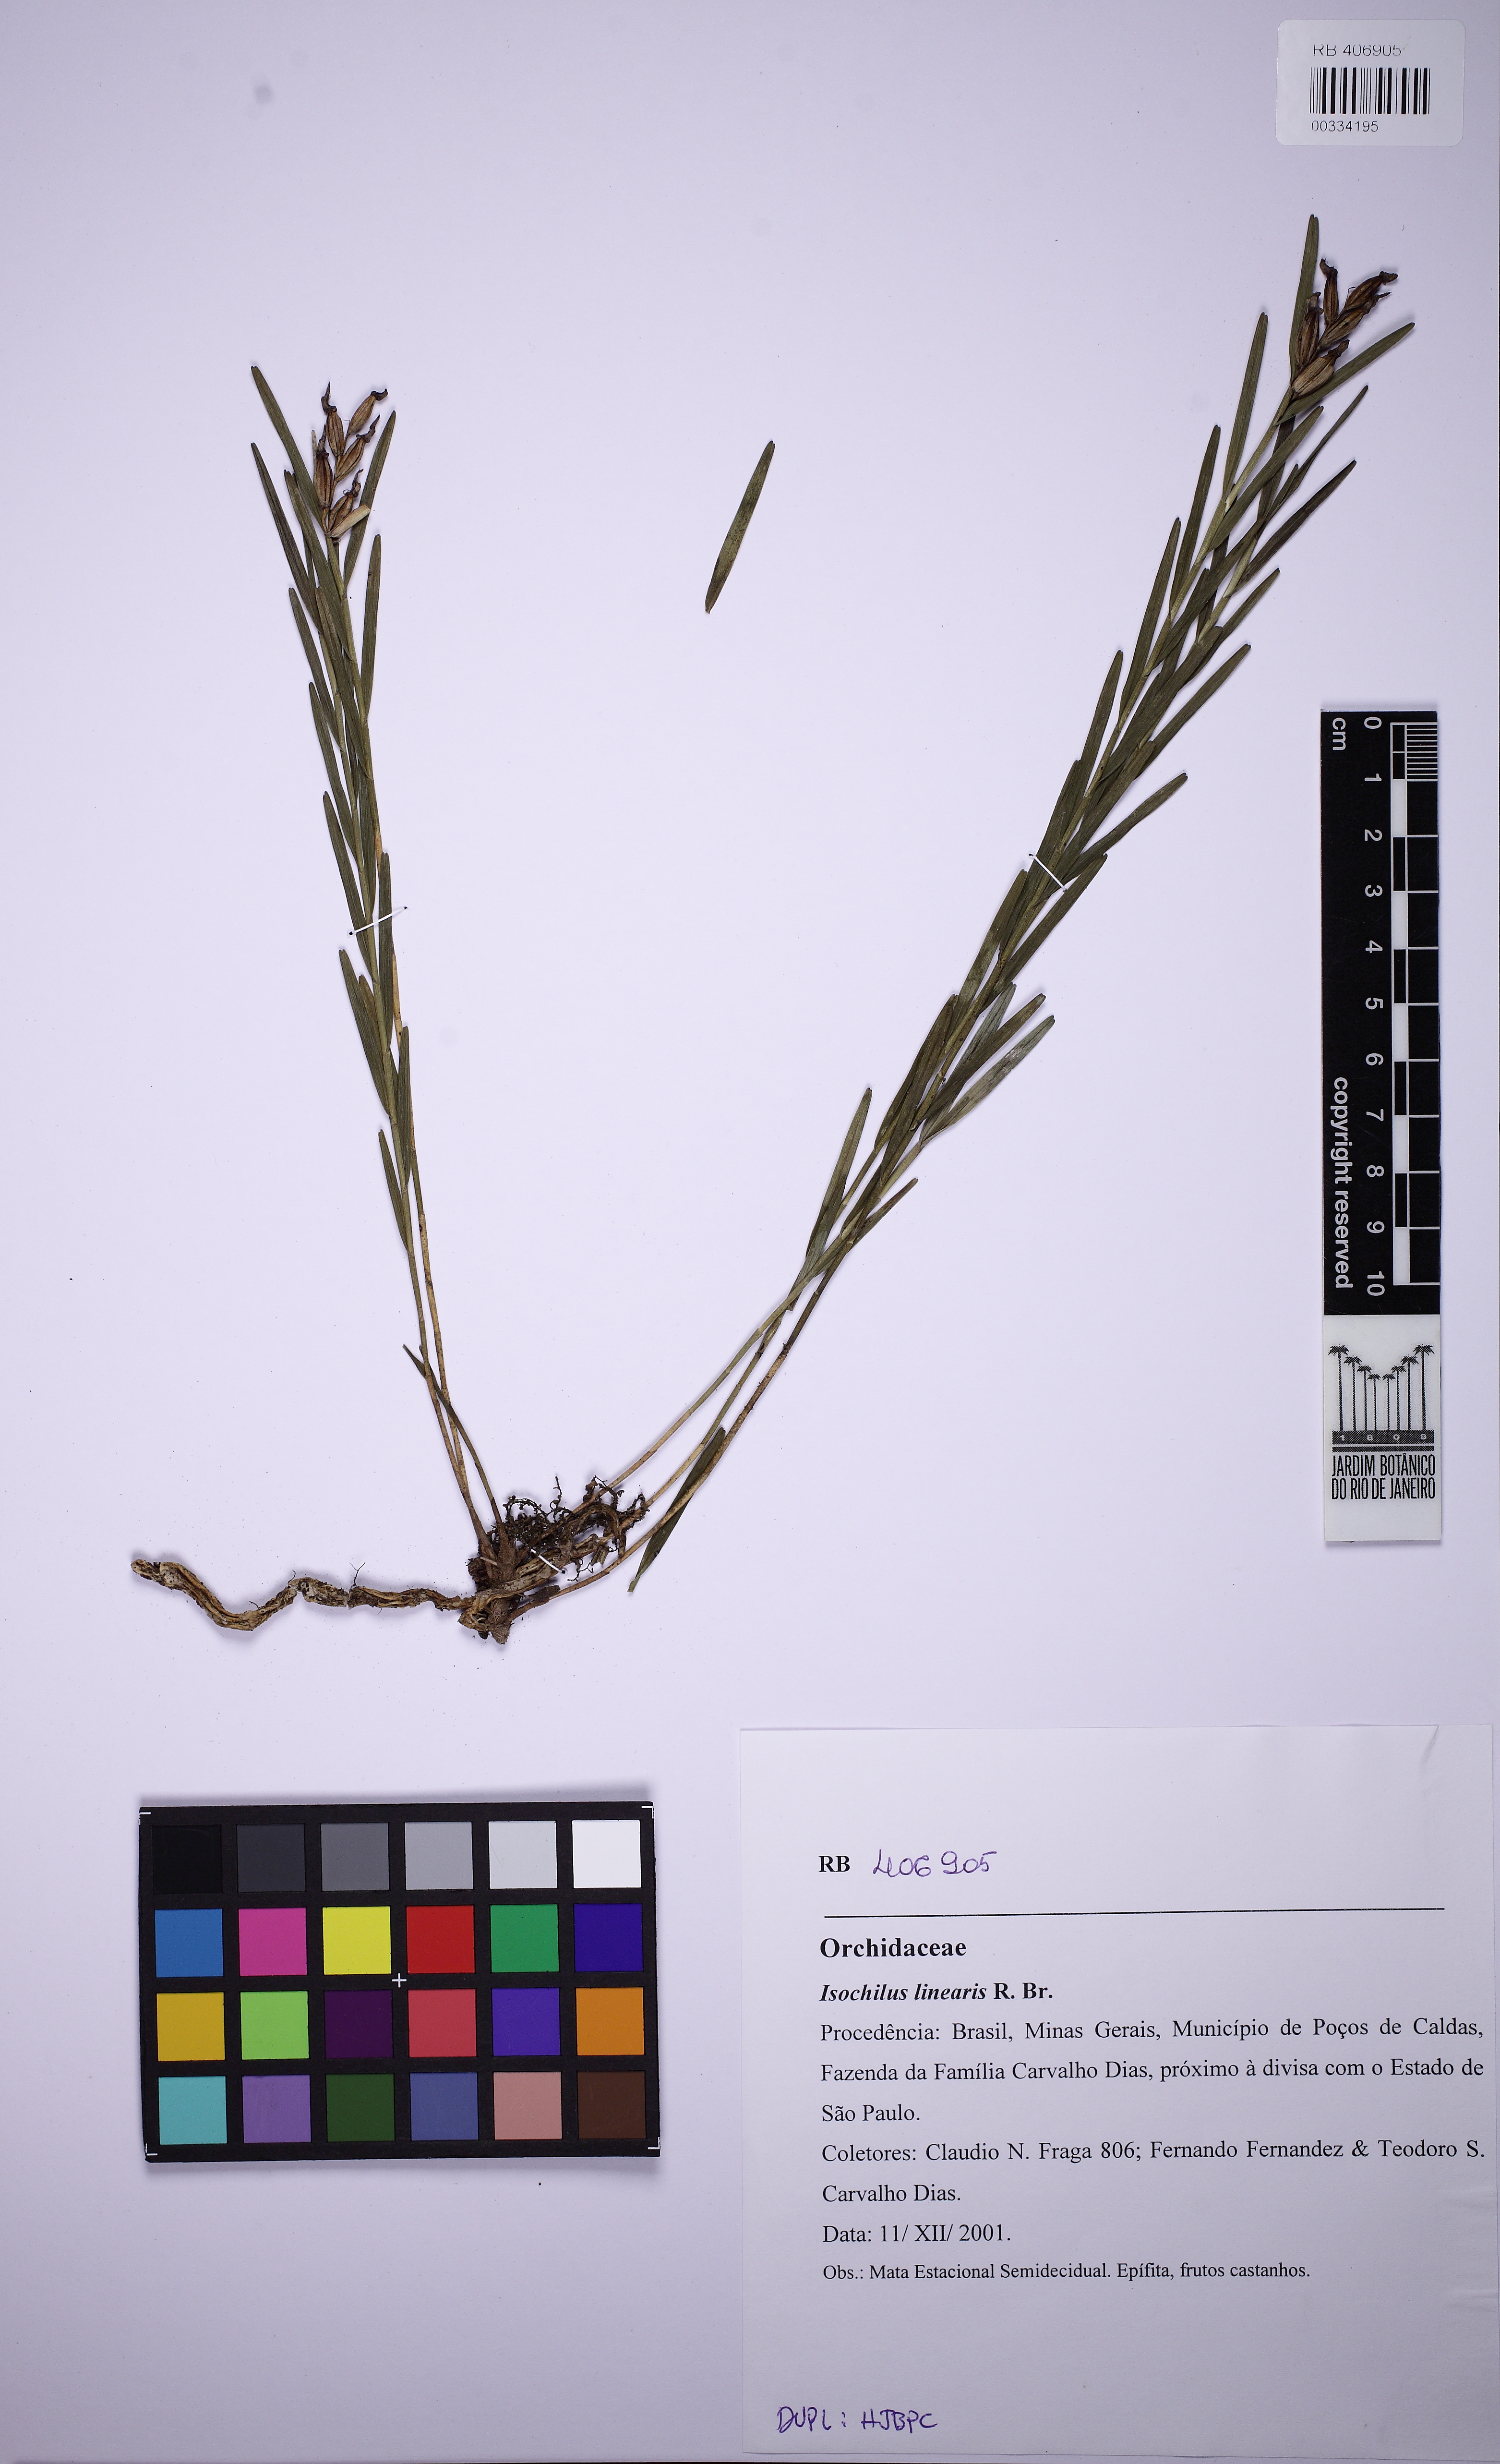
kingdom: Plantae
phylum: Tracheophyta
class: Liliopsida
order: Asparagales
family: Orchidaceae
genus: Isochilus
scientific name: Isochilus linearis
